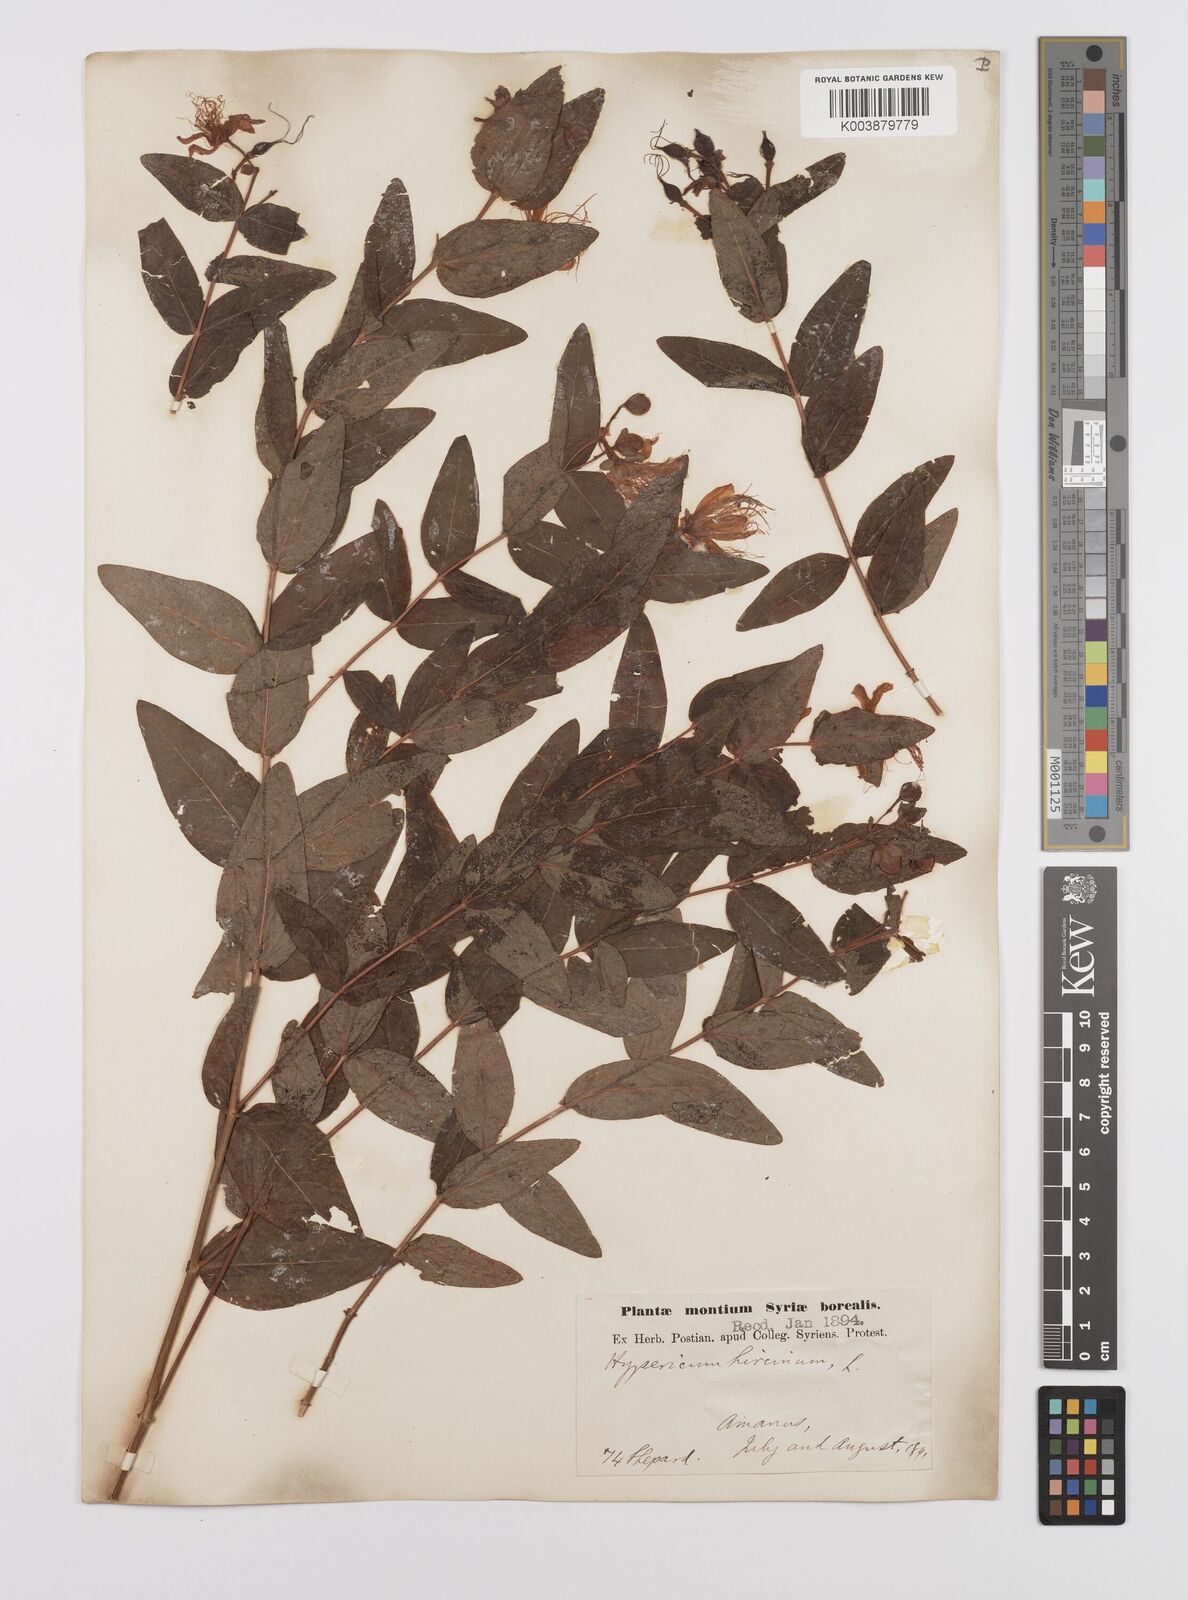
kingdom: Plantae
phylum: Tracheophyta
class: Magnoliopsida
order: Malpighiales
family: Hypericaceae
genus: Hypericum
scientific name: Hypericum hircinum
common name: Stinking tutsan
